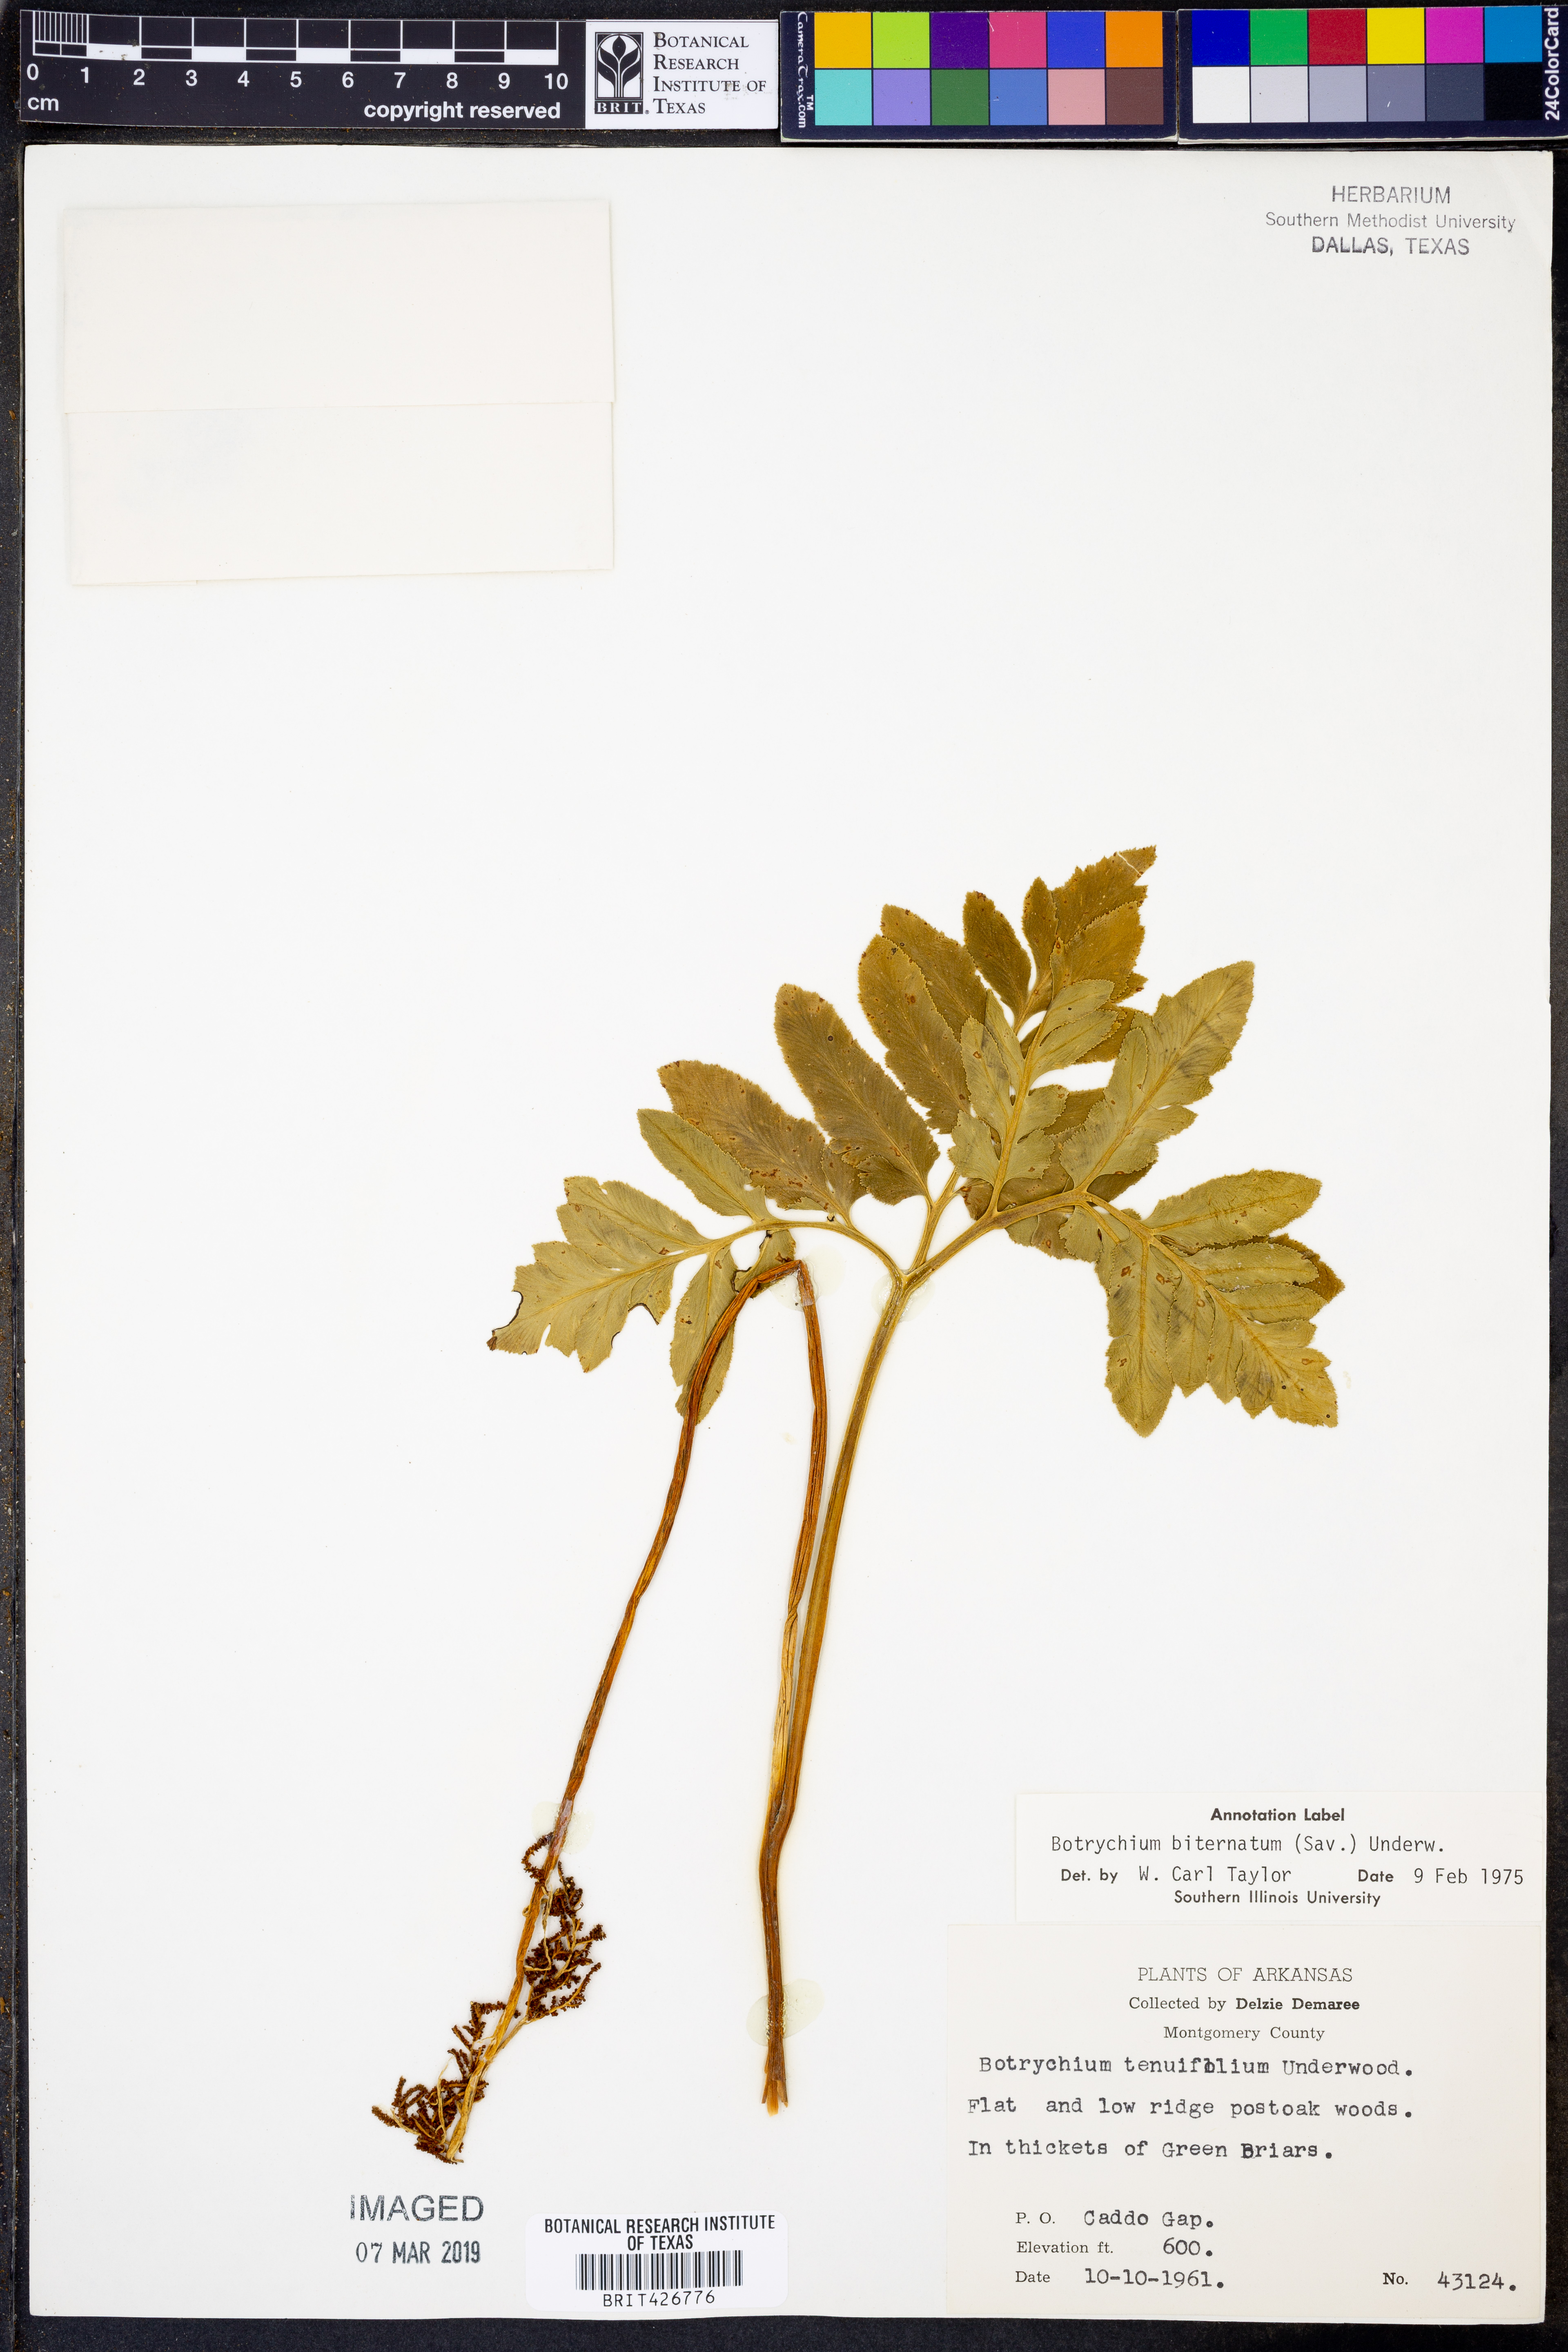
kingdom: Plantae
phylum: Tracheophyta
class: Polypodiopsida
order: Ophioglossales
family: Ophioglossaceae
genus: Sceptridium
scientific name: Sceptridium biternatum
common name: Sparse-lobed grapefern
